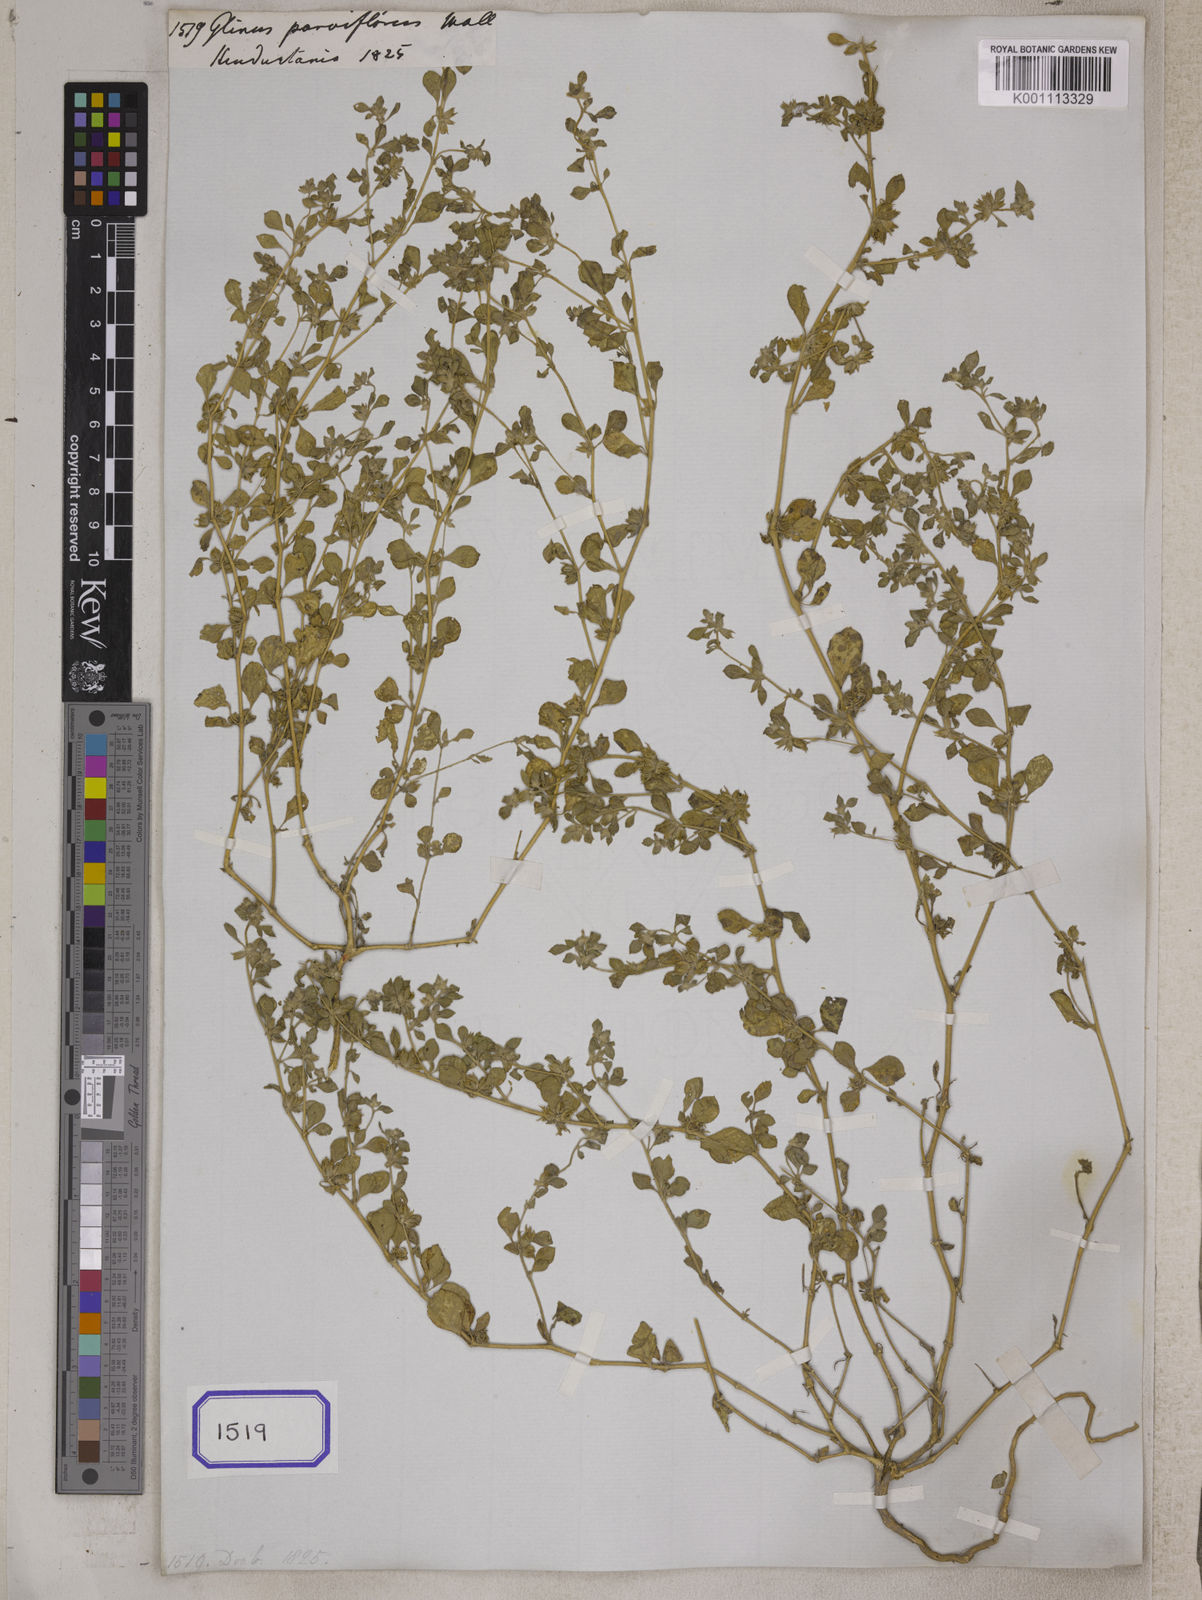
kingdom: Plantae
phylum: Tracheophyta
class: Magnoliopsida
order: Caryophyllales
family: Molluginaceae
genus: Glinus
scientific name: Glinus lotoides
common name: Lotus sweetjuice
